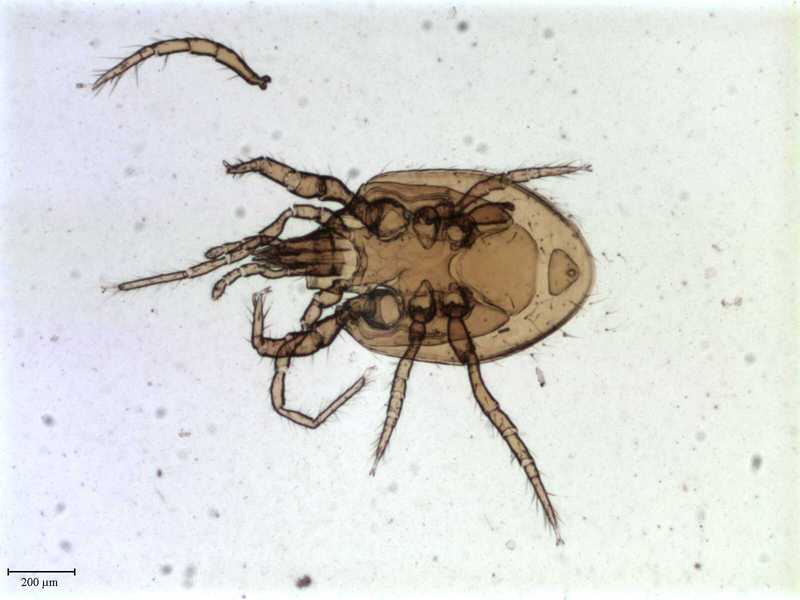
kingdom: Animalia
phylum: Arthropoda
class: Arachnida
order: Mesostigmata
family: Pachylaelapidae
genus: Onchodellus
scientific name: Onchodellus monticolus
